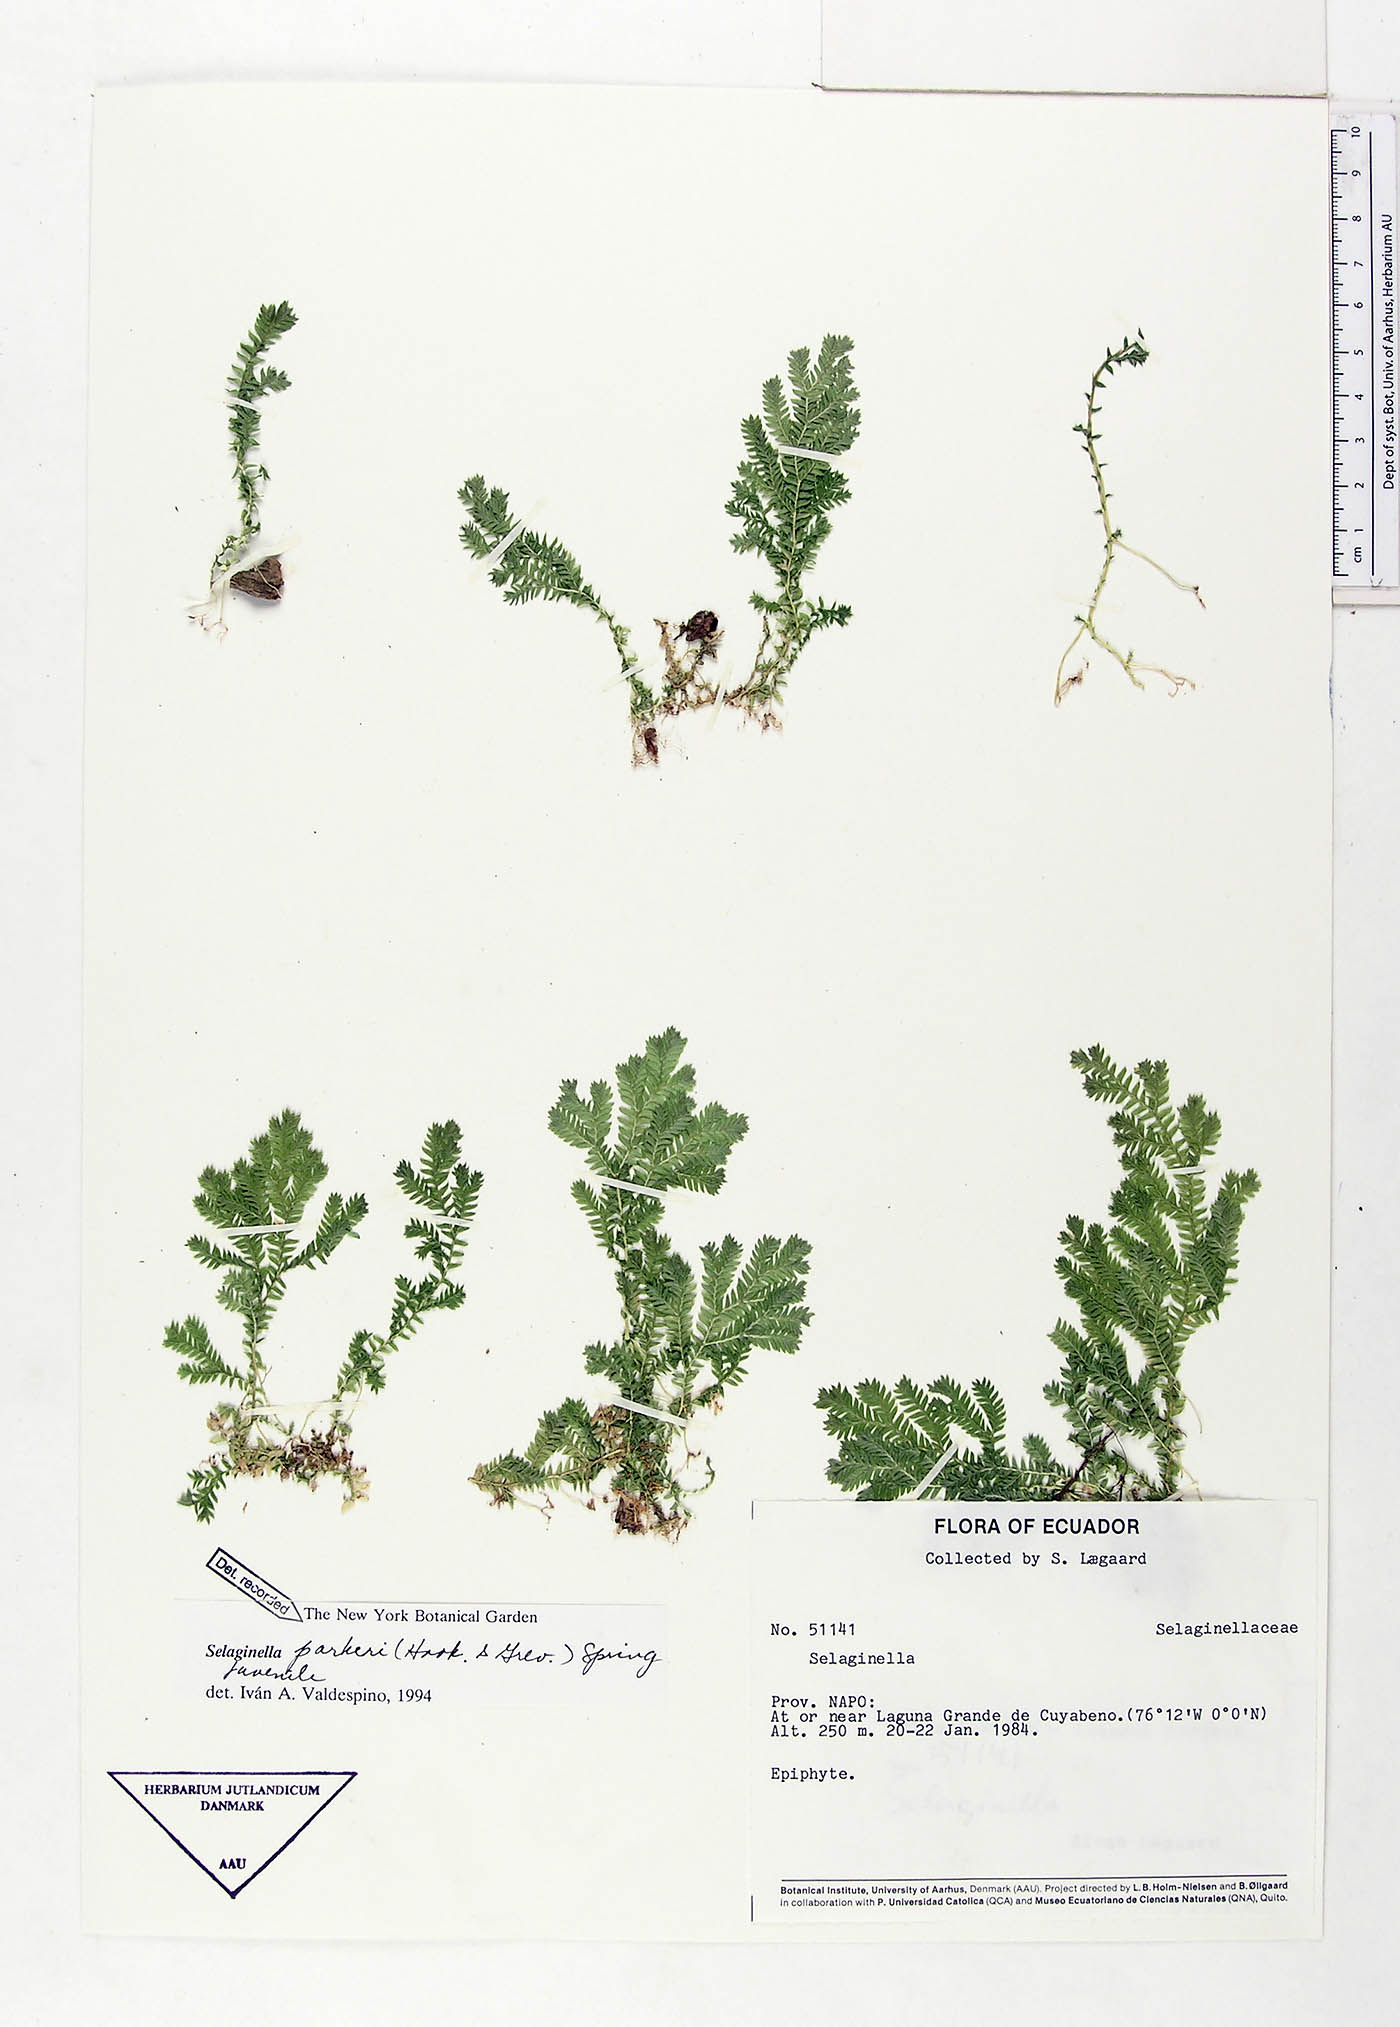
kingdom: Plantae
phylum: Tracheophyta
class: Lycopodiopsida
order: Selaginellales
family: Selaginellaceae
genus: Selaginella
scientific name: Selaginella parkeri
